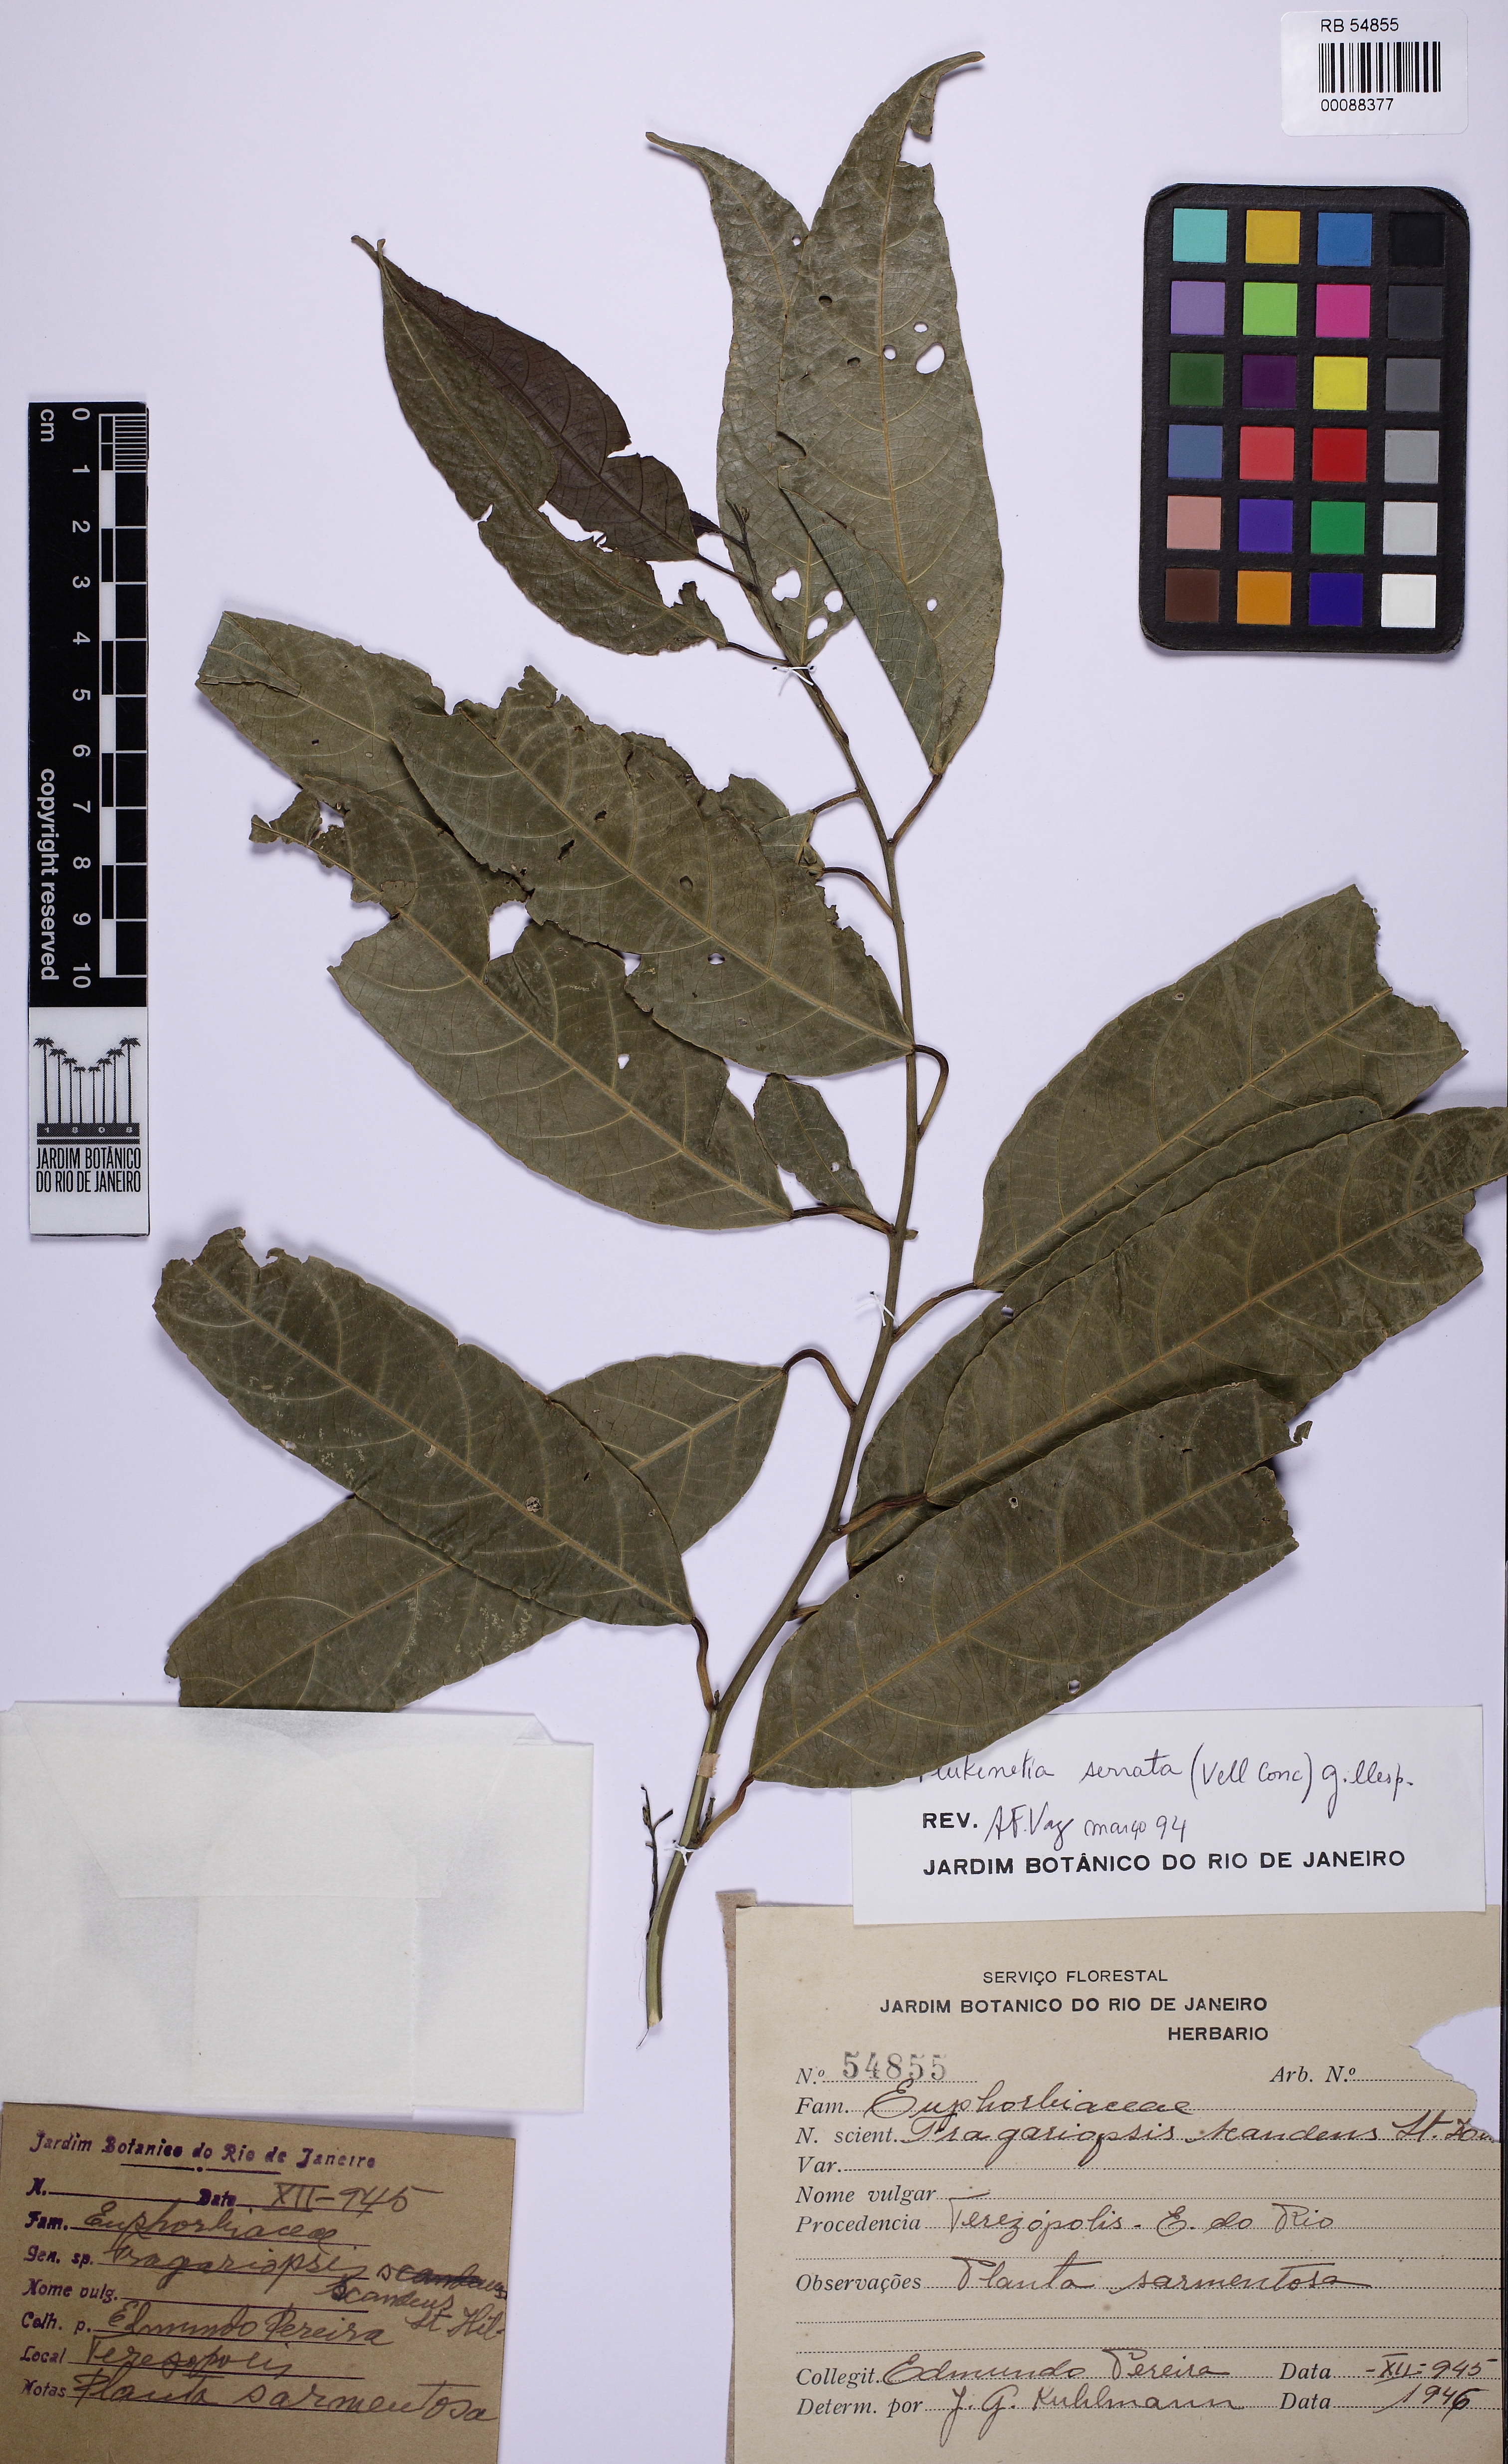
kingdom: Plantae
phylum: Tracheophyta
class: Magnoliopsida
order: Malpighiales
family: Euphorbiaceae
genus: Plukenetia
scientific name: Plukenetia serrata
